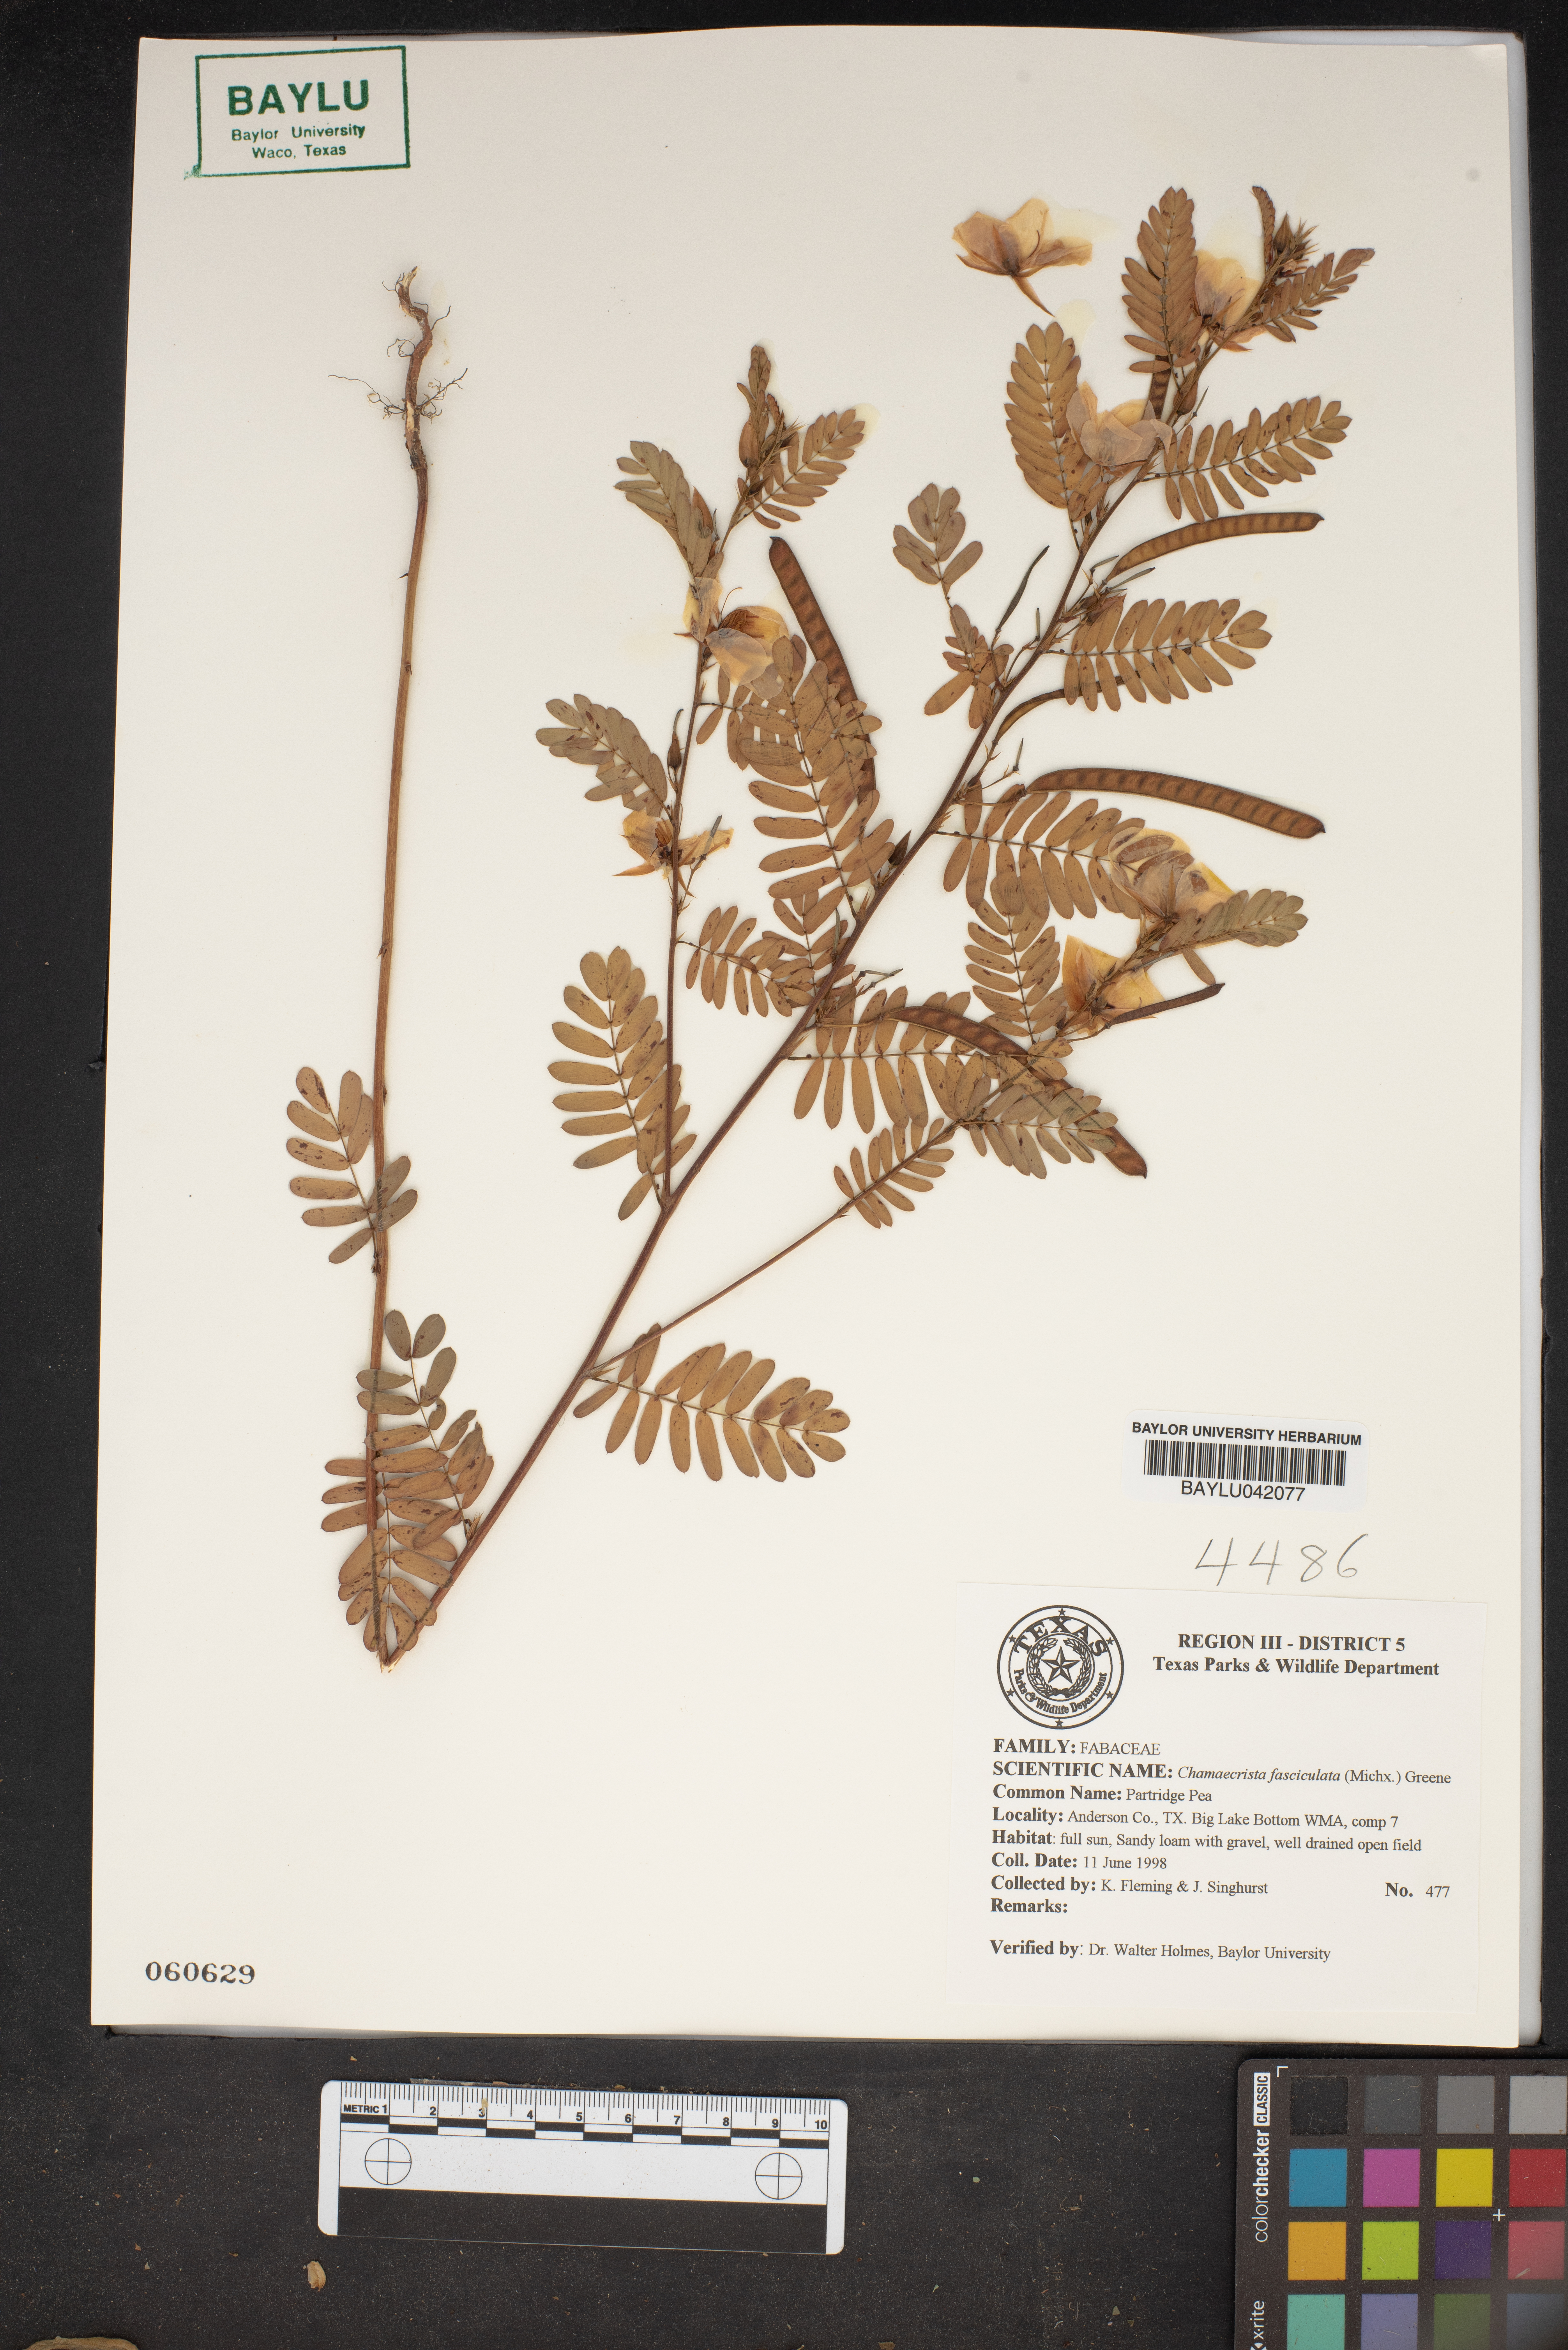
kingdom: Plantae
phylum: Tracheophyta
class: Magnoliopsida
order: Fabales
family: Fabaceae
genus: Chamaecrista
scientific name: Chamaecrista fasciculata
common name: Golden cassia
